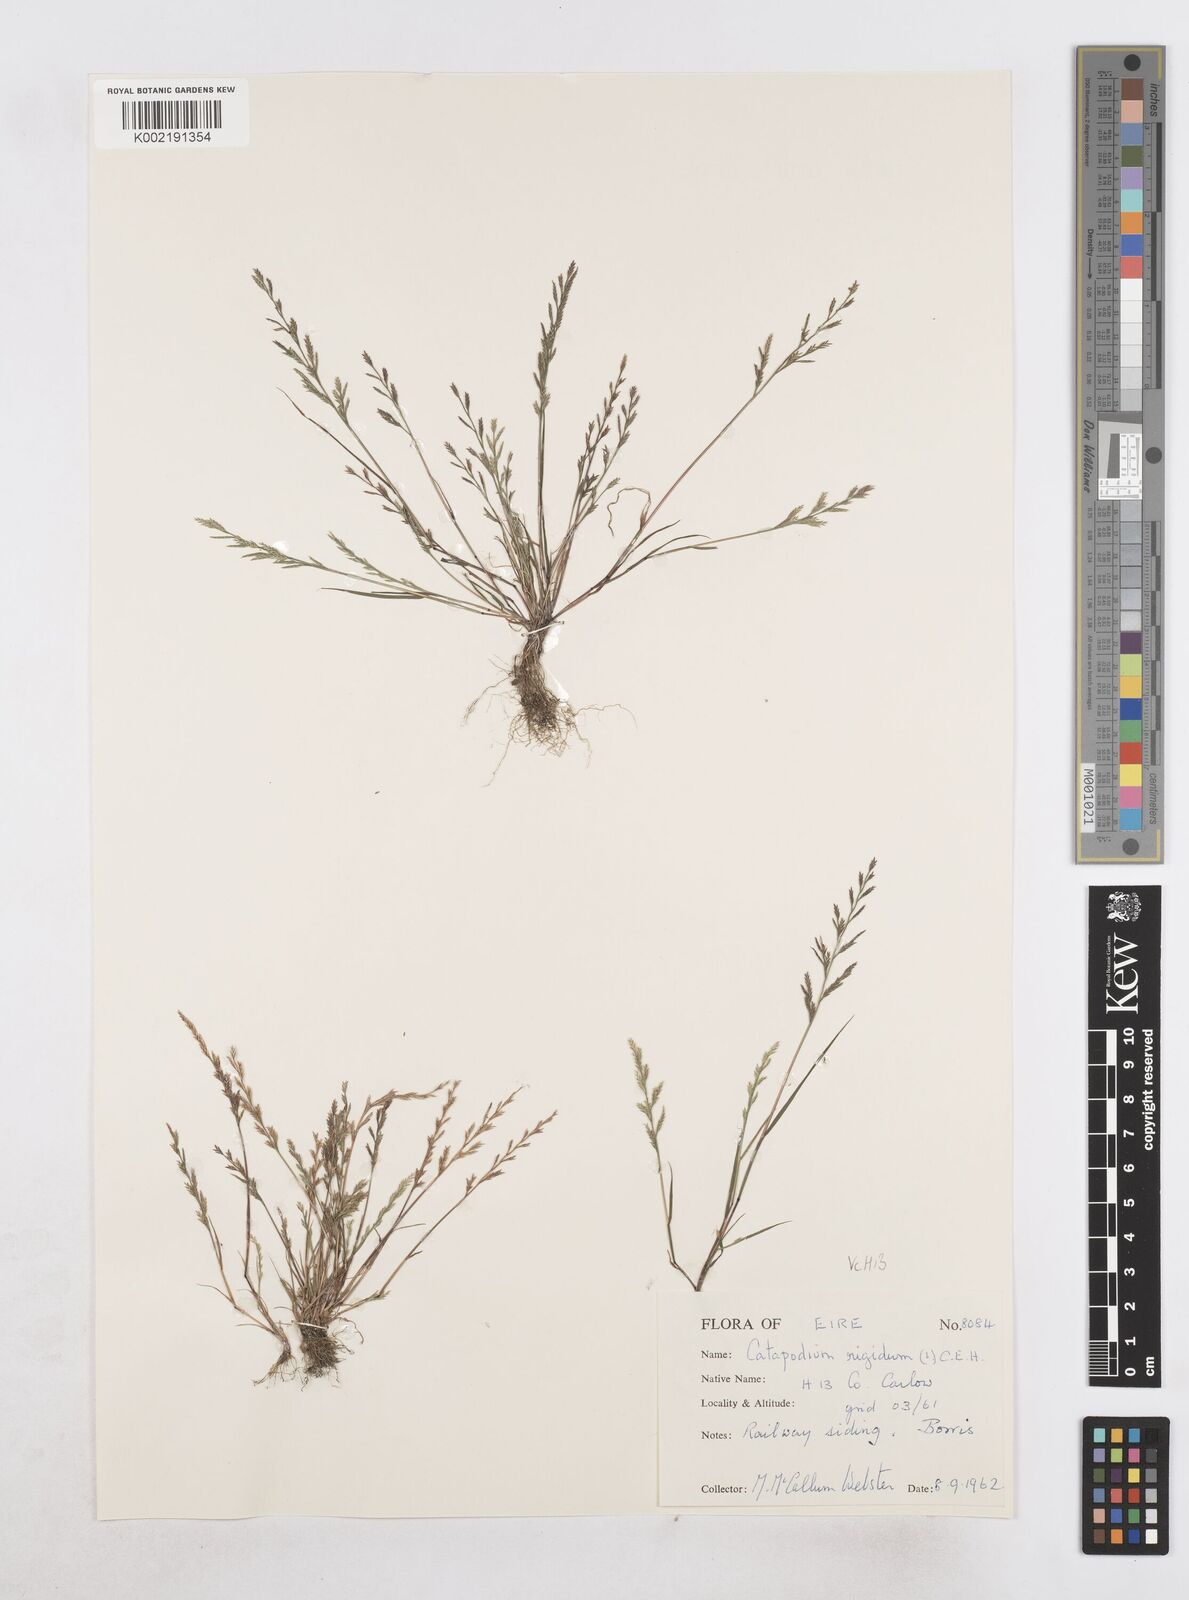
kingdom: Plantae
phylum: Tracheophyta
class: Liliopsida
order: Poales
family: Poaceae
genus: Catapodium
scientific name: Catapodium rigidum
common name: Fern-grass
